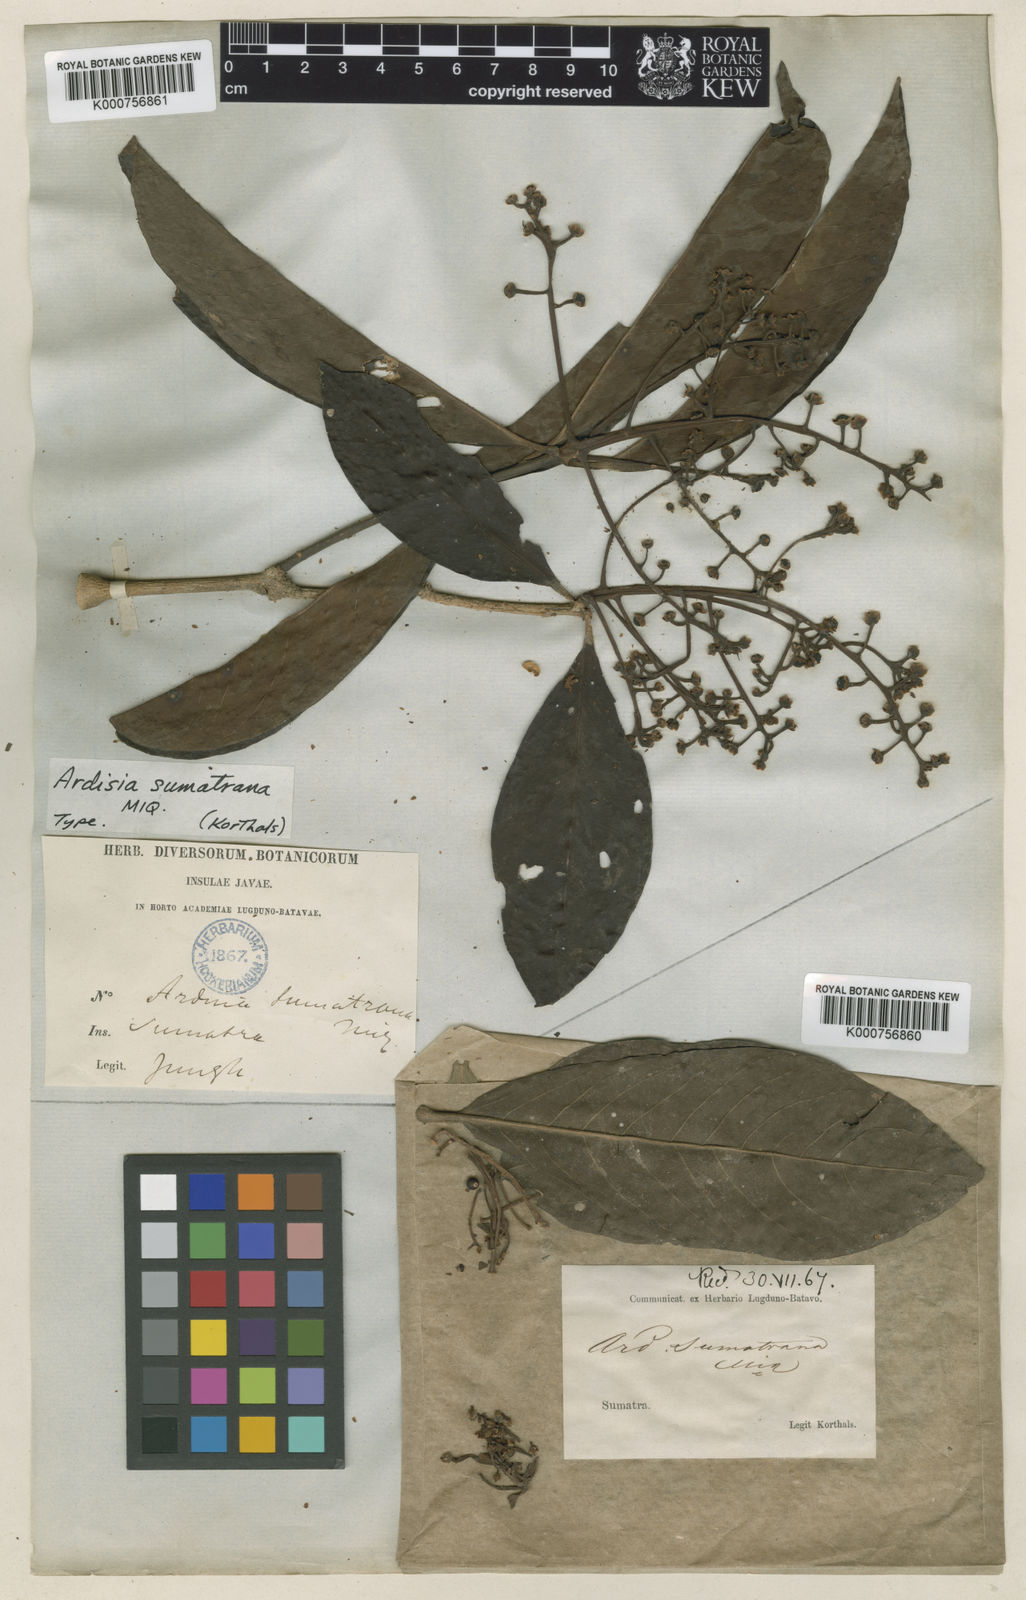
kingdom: Plantae
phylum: Tracheophyta
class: Magnoliopsida
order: Ericales
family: Primulaceae
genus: Ardisia
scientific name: Ardisia sumatrana
